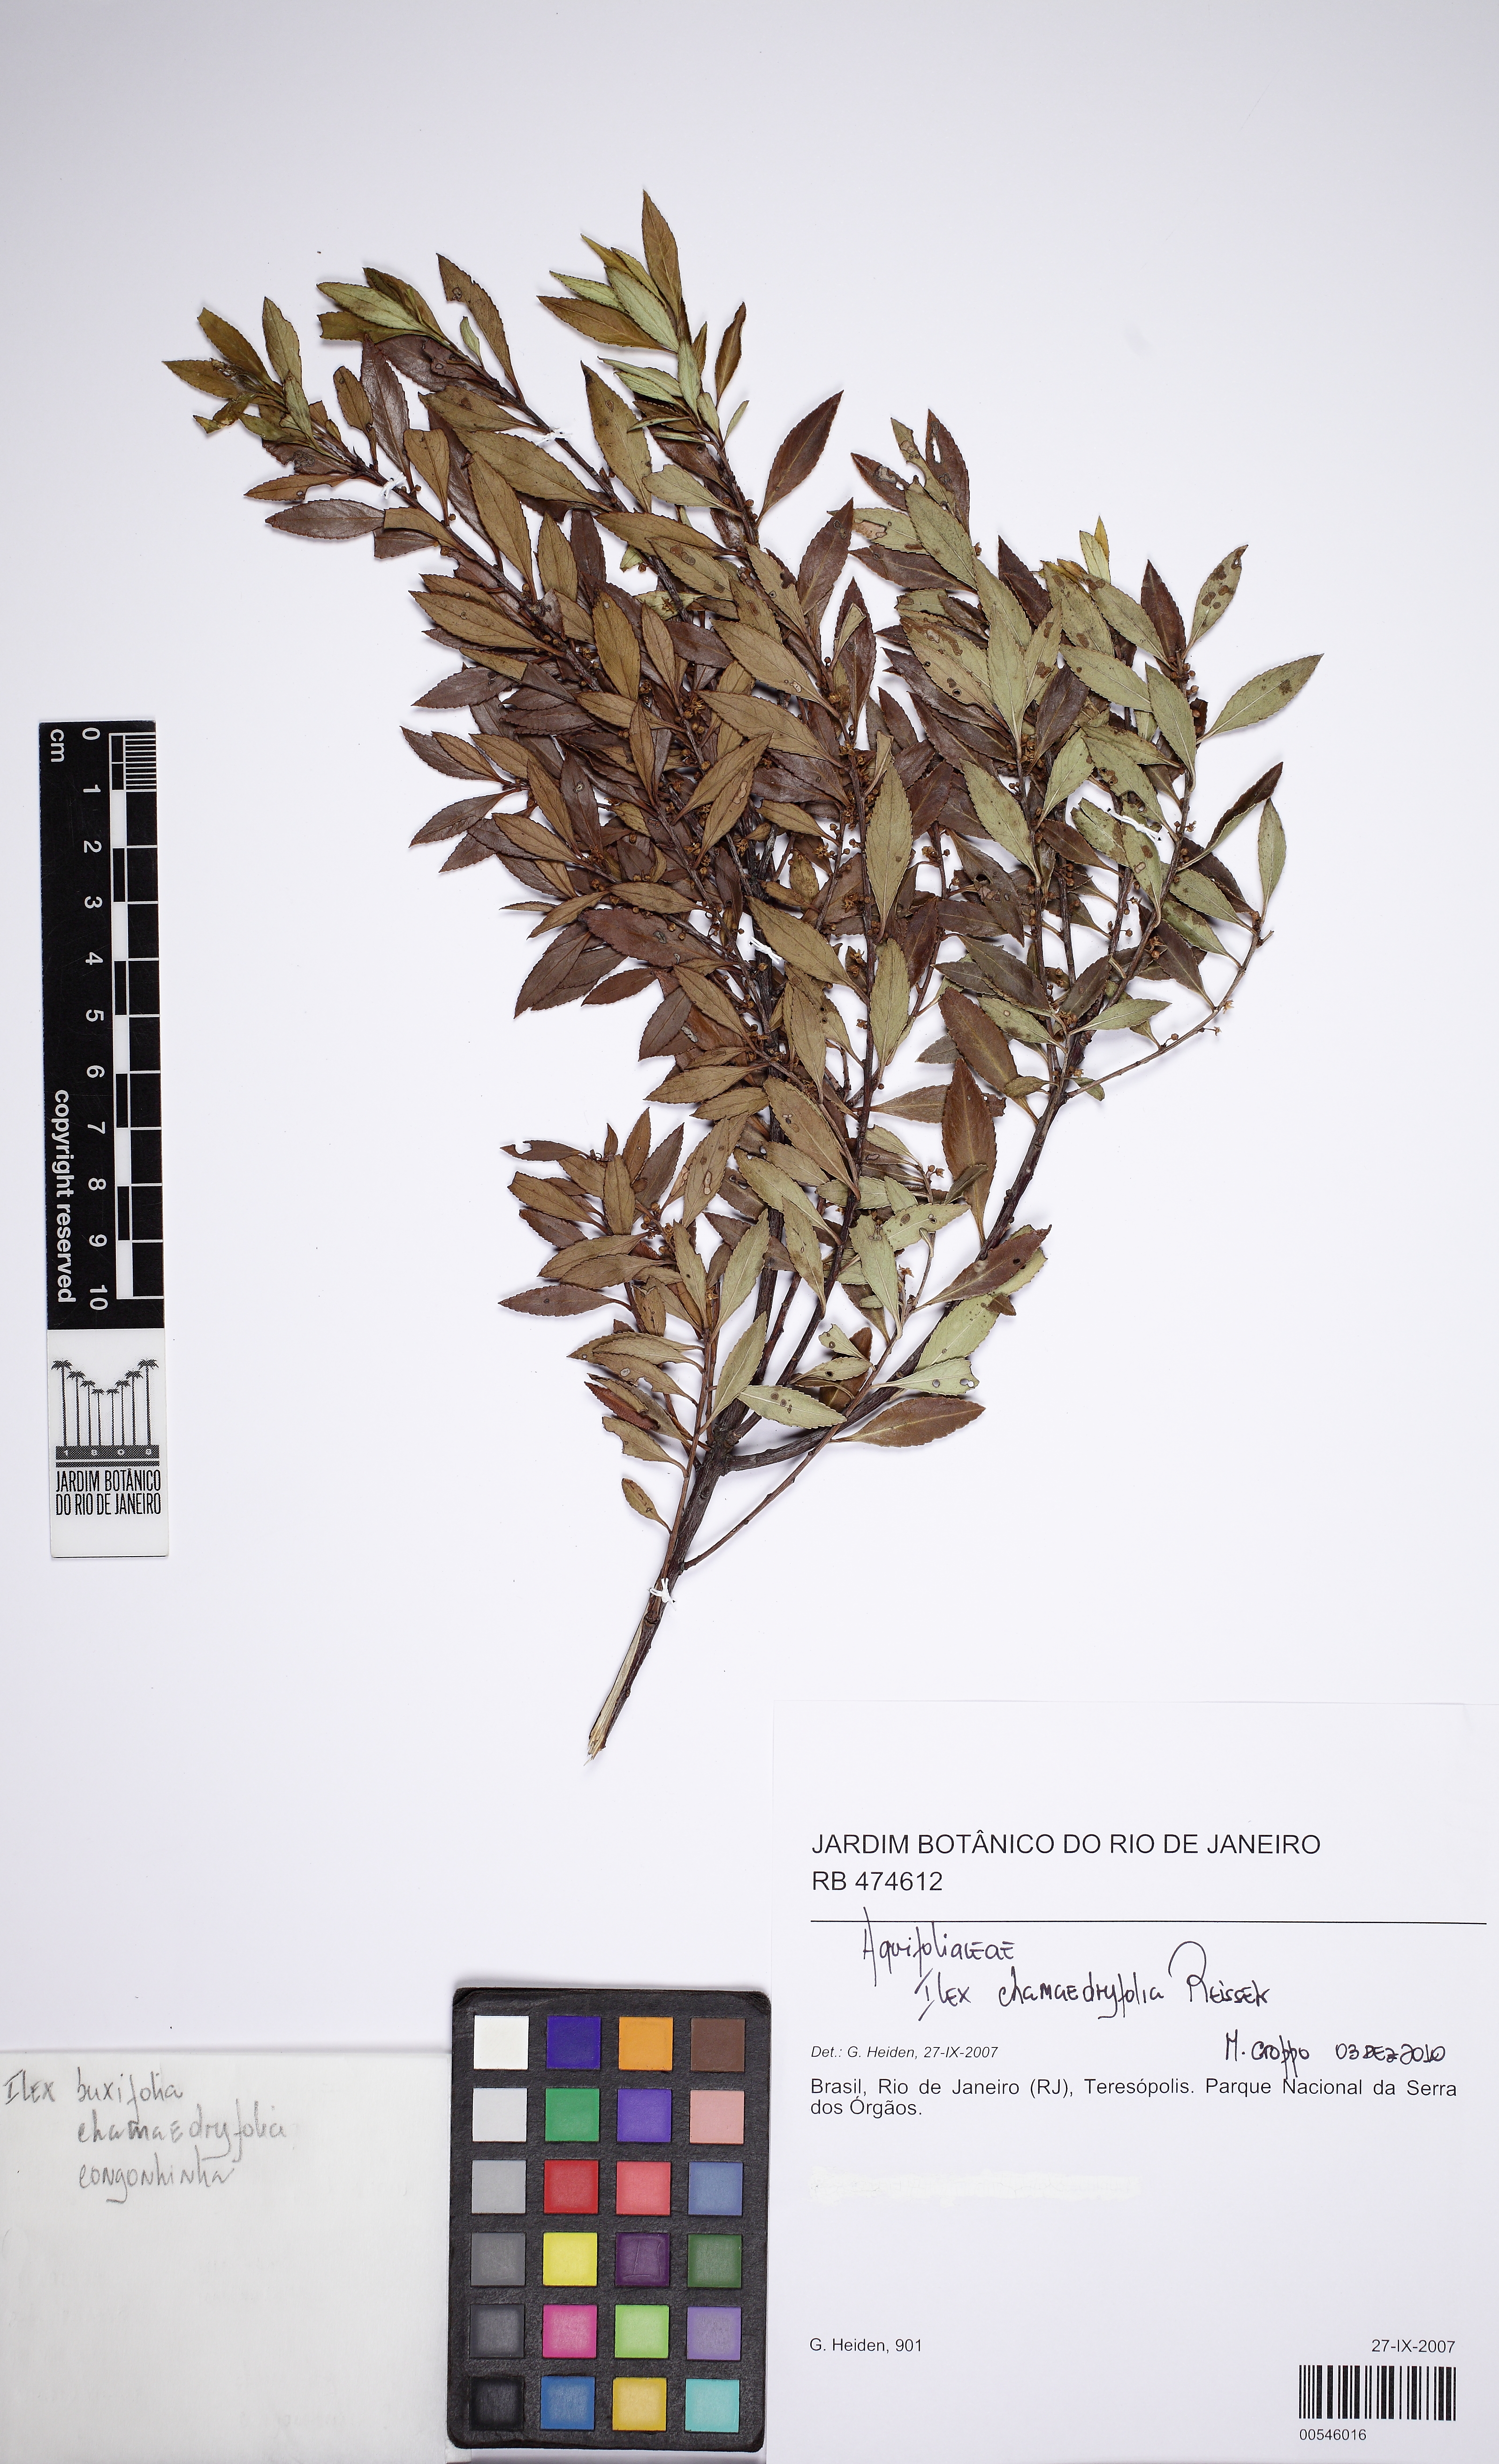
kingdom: Plantae
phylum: Tracheophyta
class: Magnoliopsida
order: Aquifoliales
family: Aquifoliaceae
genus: Ilex
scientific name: Ilex chamaedryfolia
